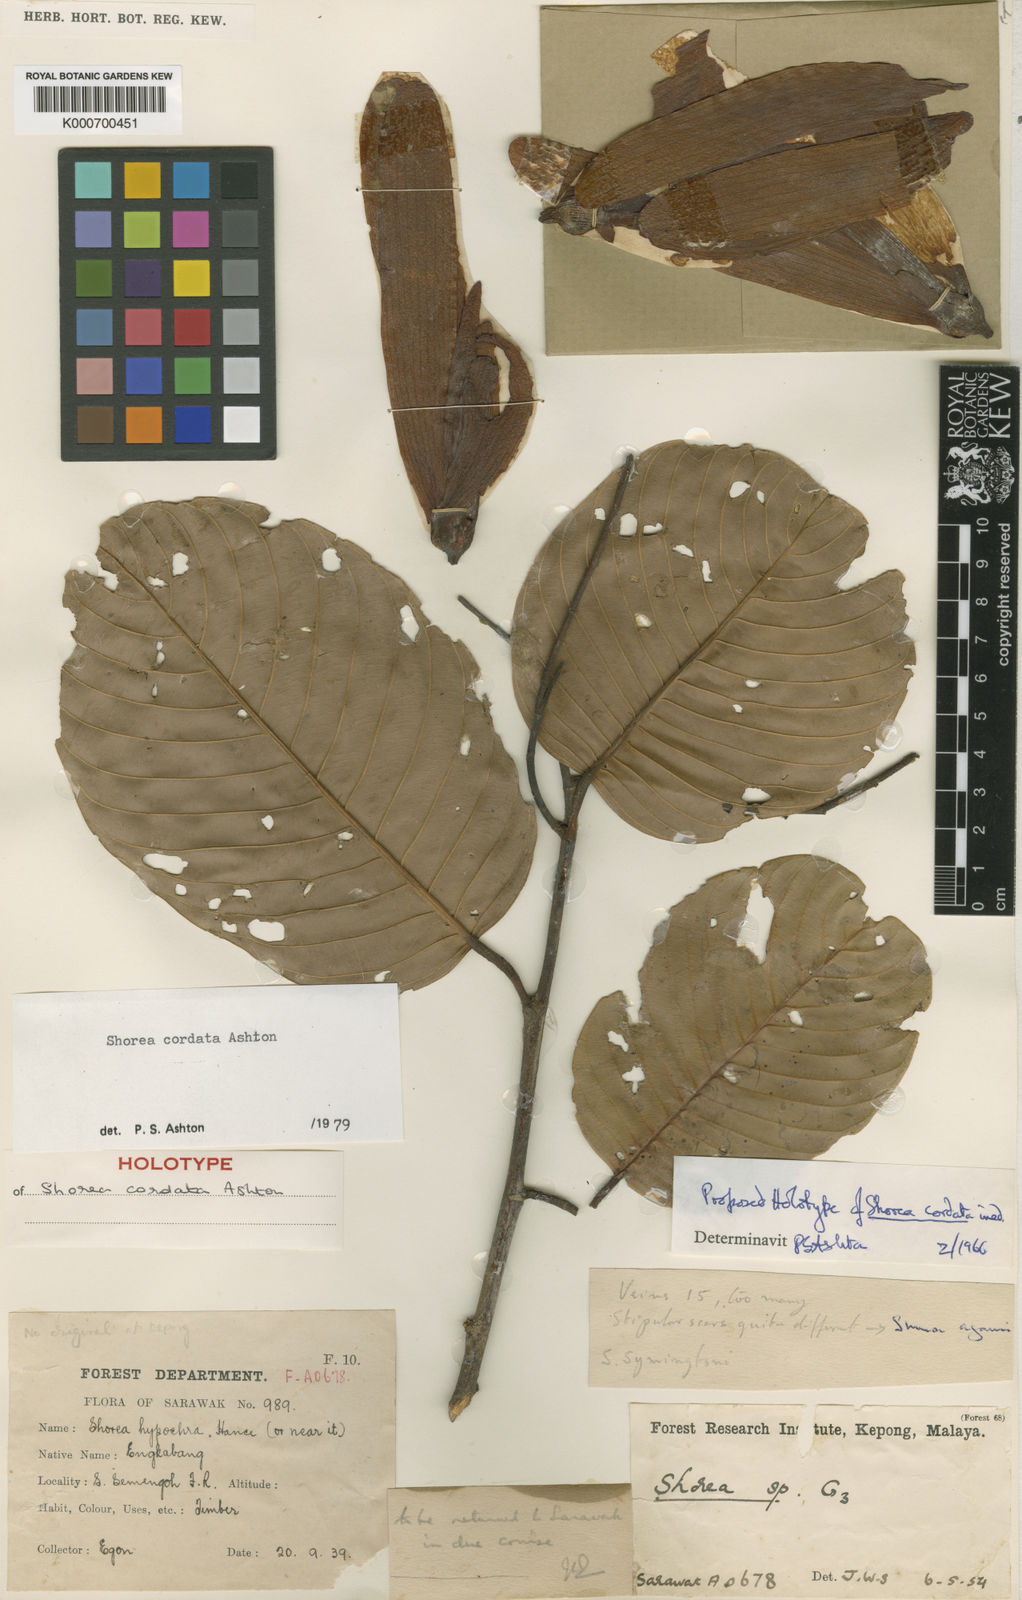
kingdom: Plantae
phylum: Tracheophyta
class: Magnoliopsida
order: Malvales
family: Dipterocarpaceae
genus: Anthoshorea
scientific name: Anthoshorea cordata
